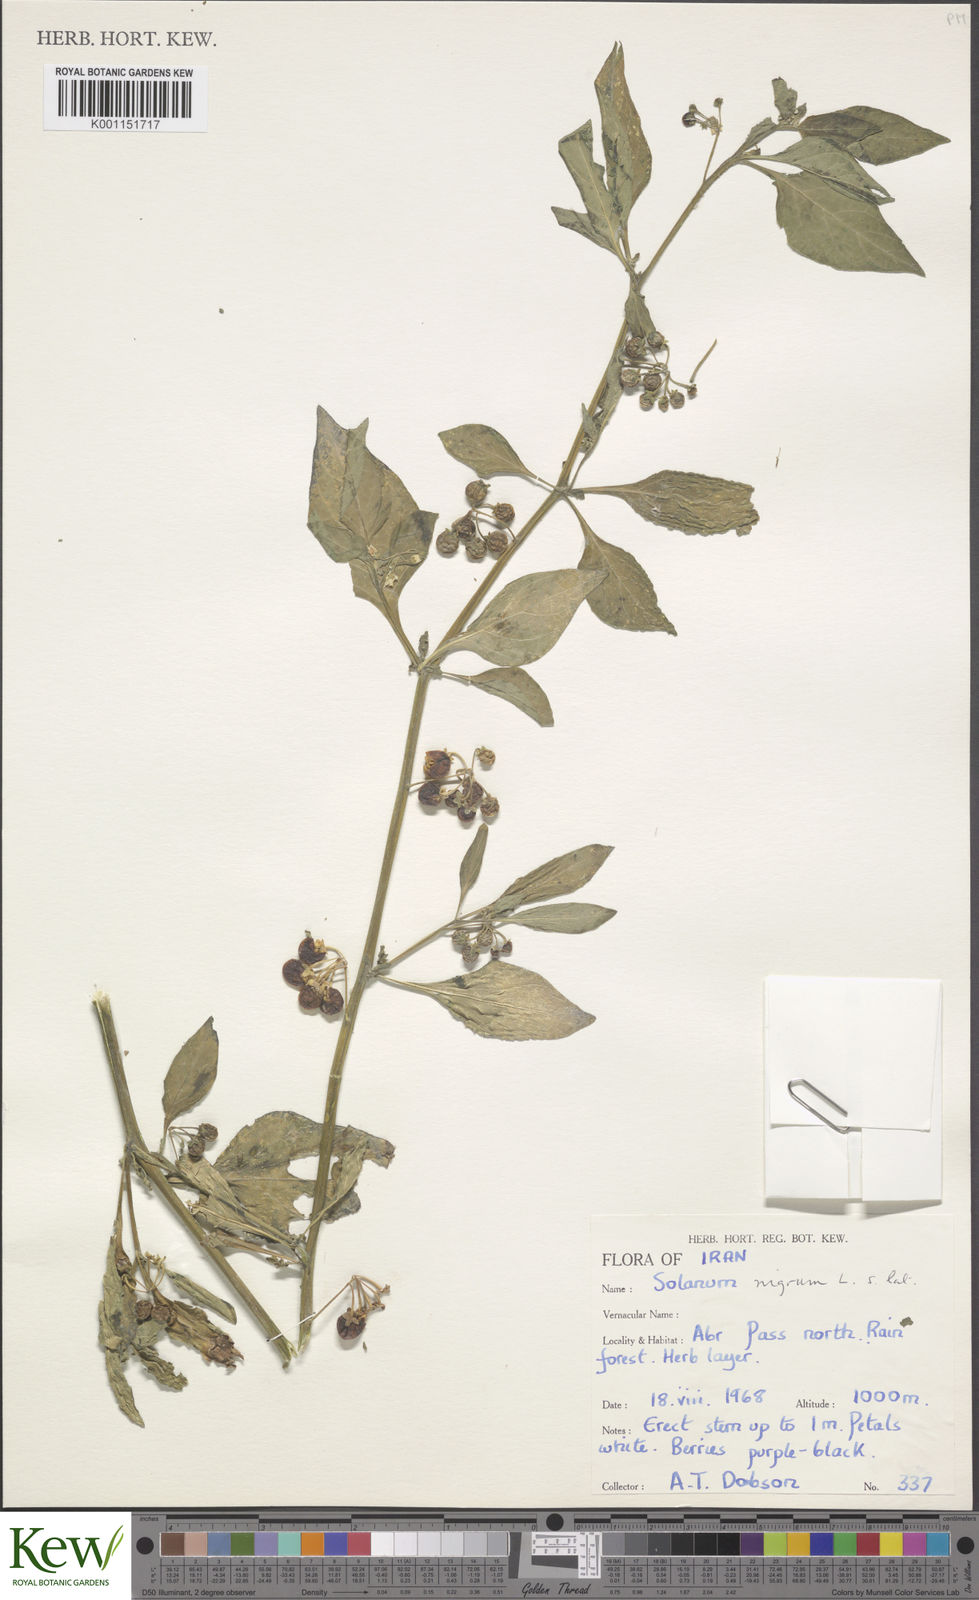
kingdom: Plantae
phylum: Tracheophyta
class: Magnoliopsida
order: Solanales
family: Solanaceae
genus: Solanum
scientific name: Solanum
